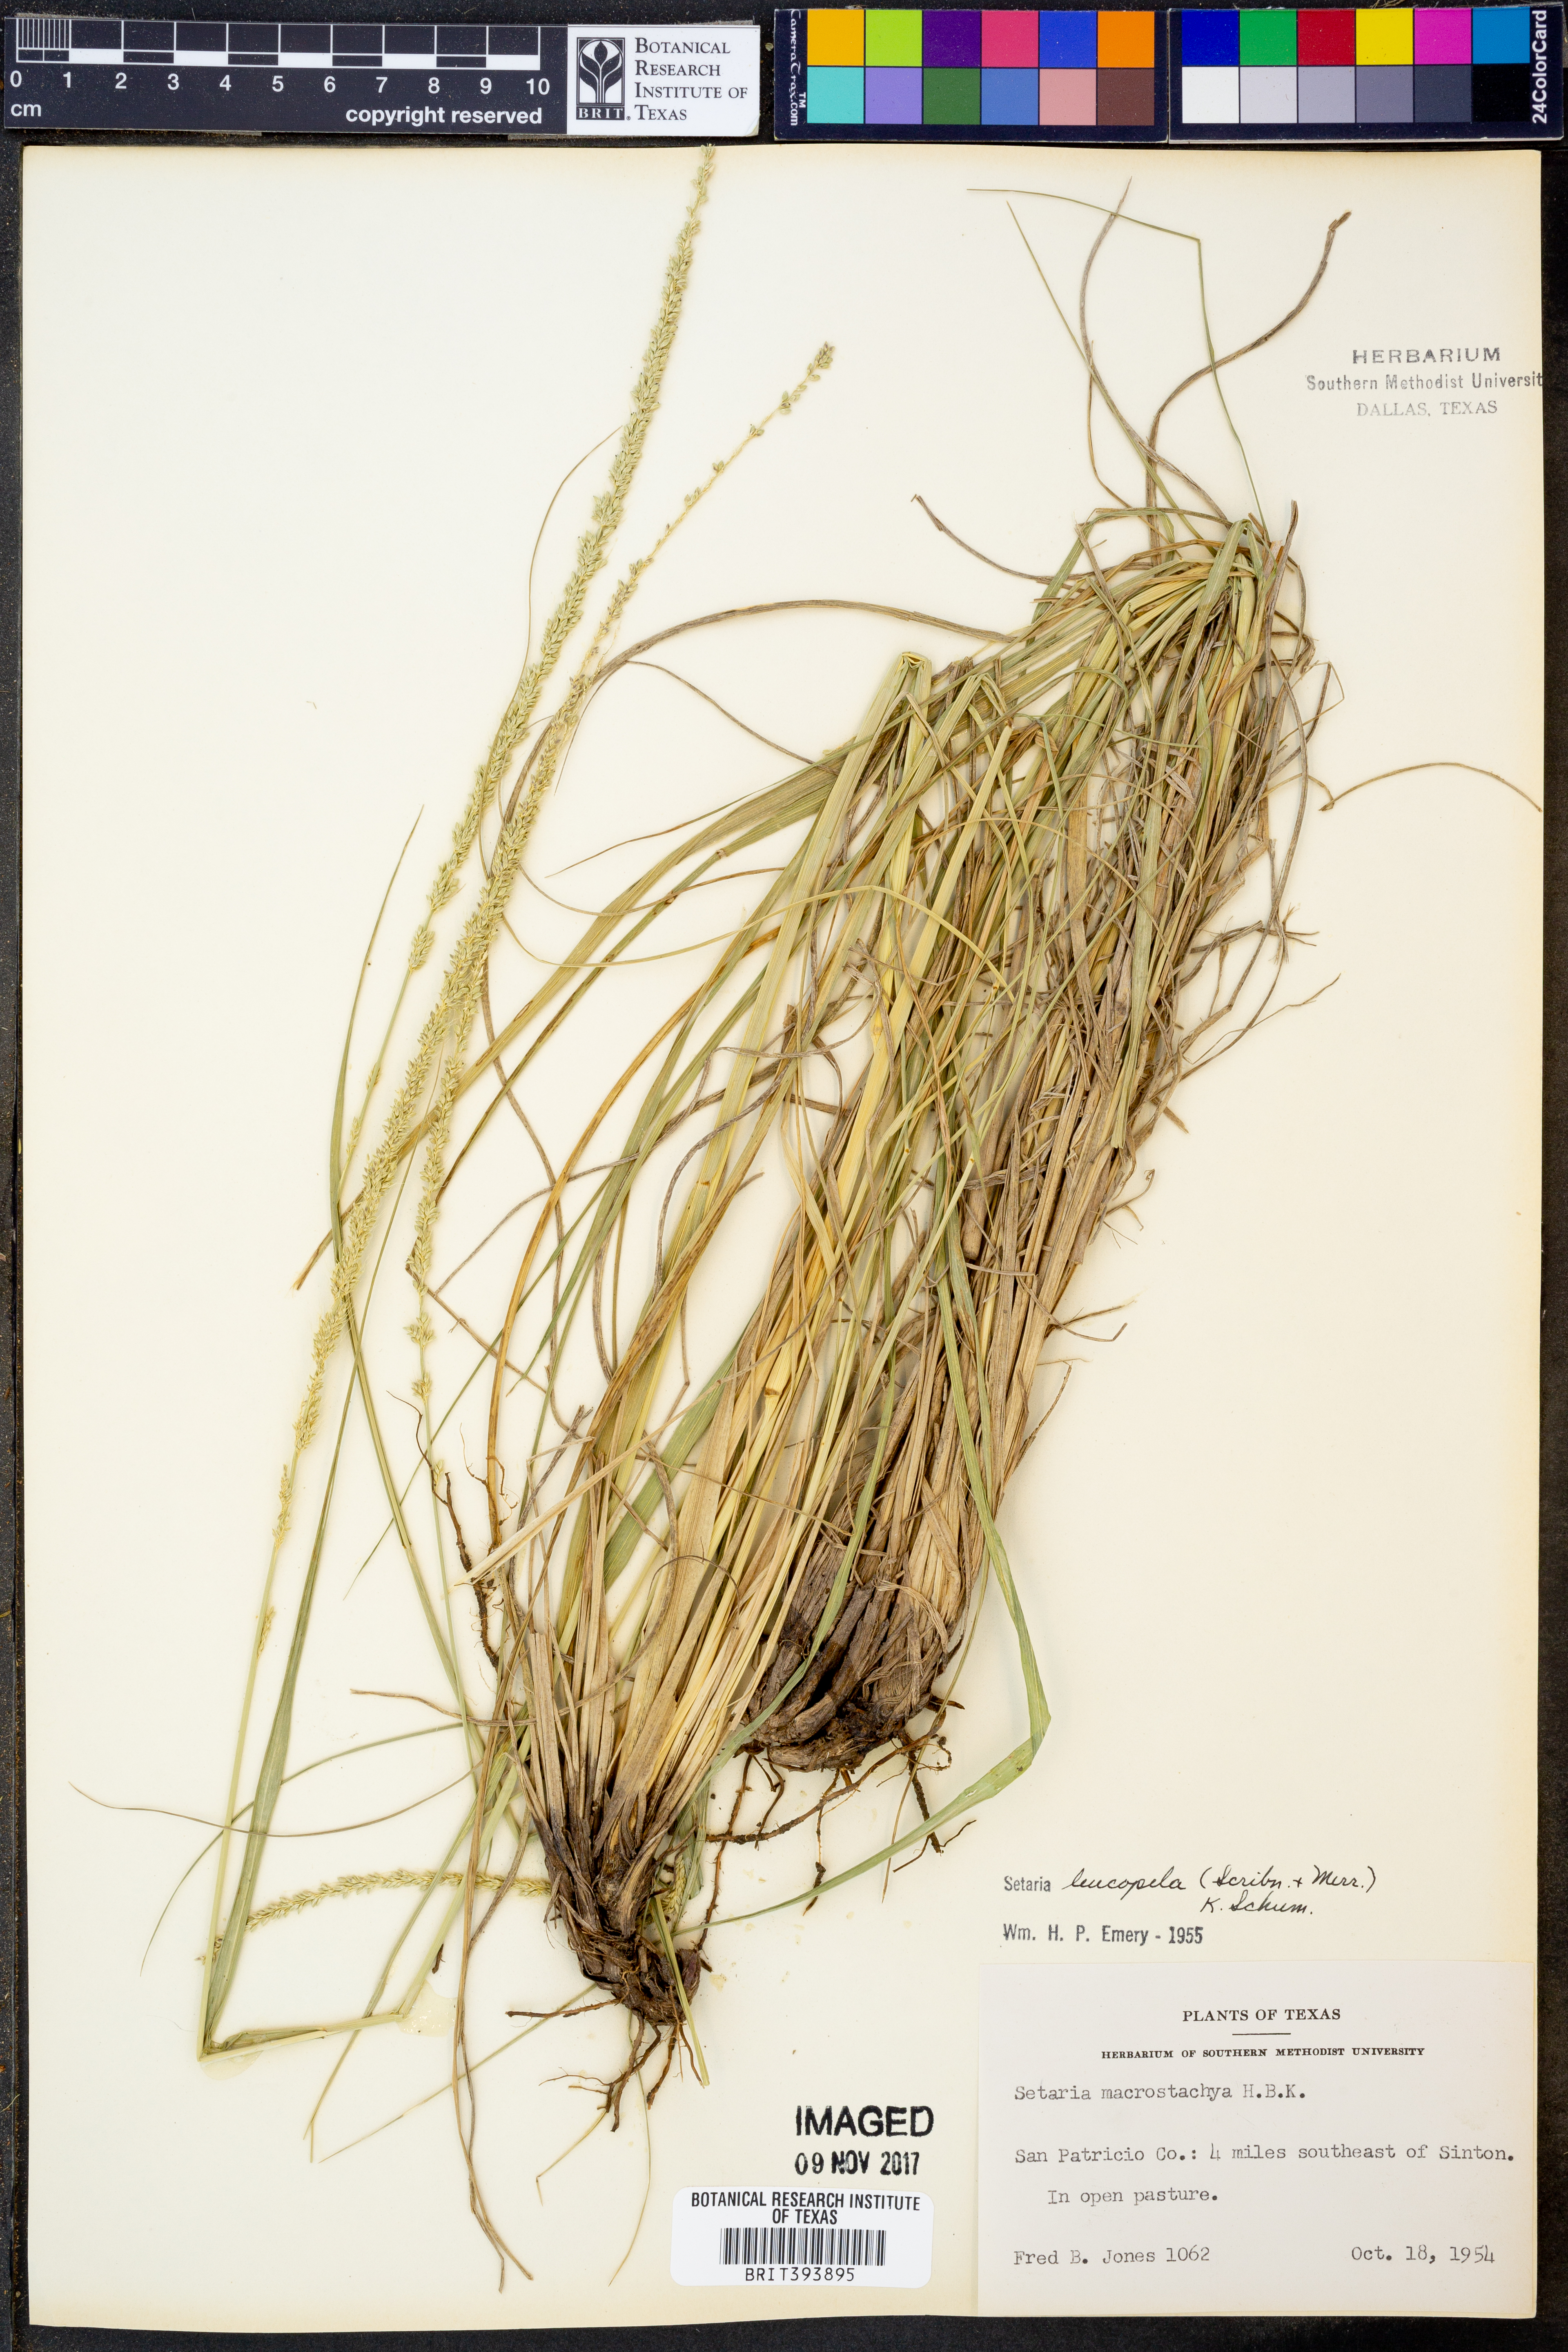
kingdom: Plantae
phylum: Tracheophyta
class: Liliopsida
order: Poales
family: Poaceae
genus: Setaria
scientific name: Setaria leucopila
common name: Plains bristle grass
